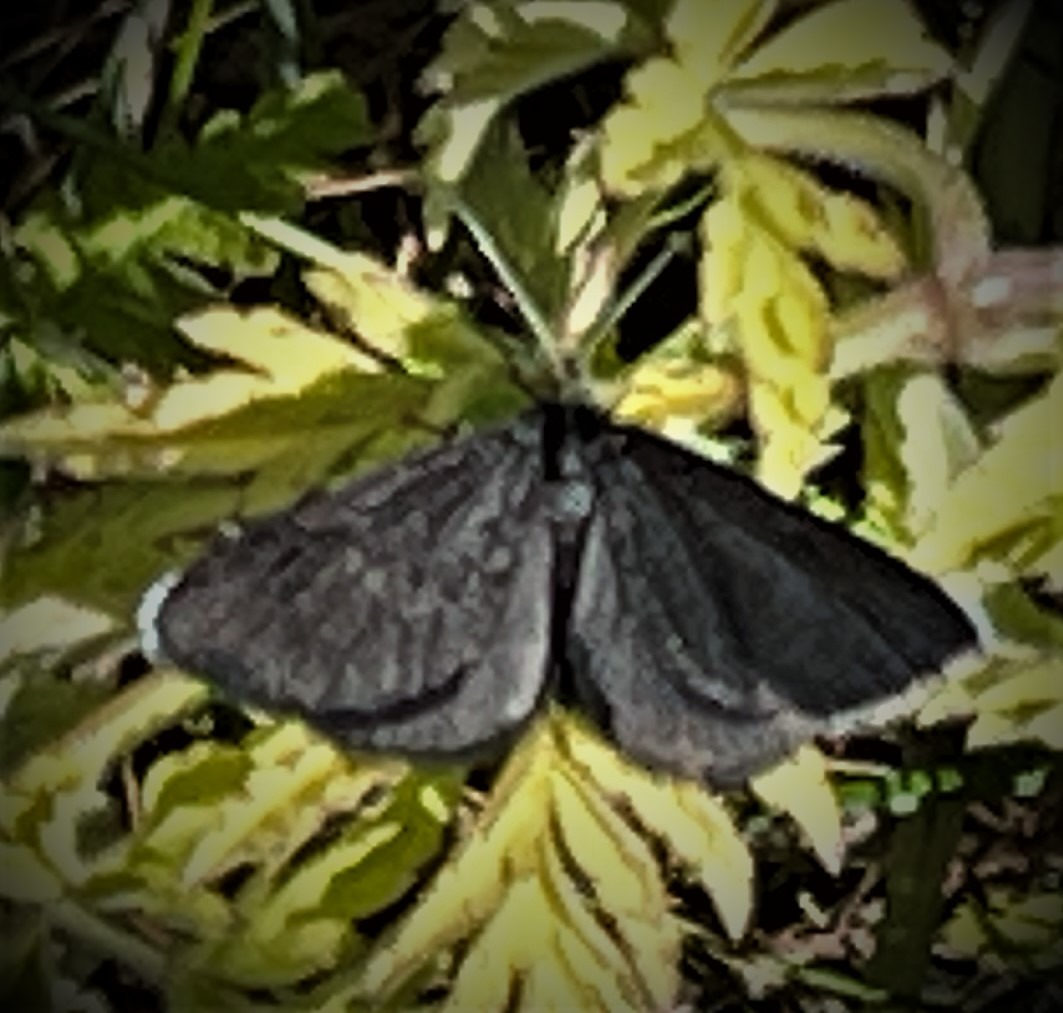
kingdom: Animalia
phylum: Arthropoda
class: Insecta
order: Lepidoptera
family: Geometridae
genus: Odezia
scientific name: Odezia atrata
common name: Sort måler
